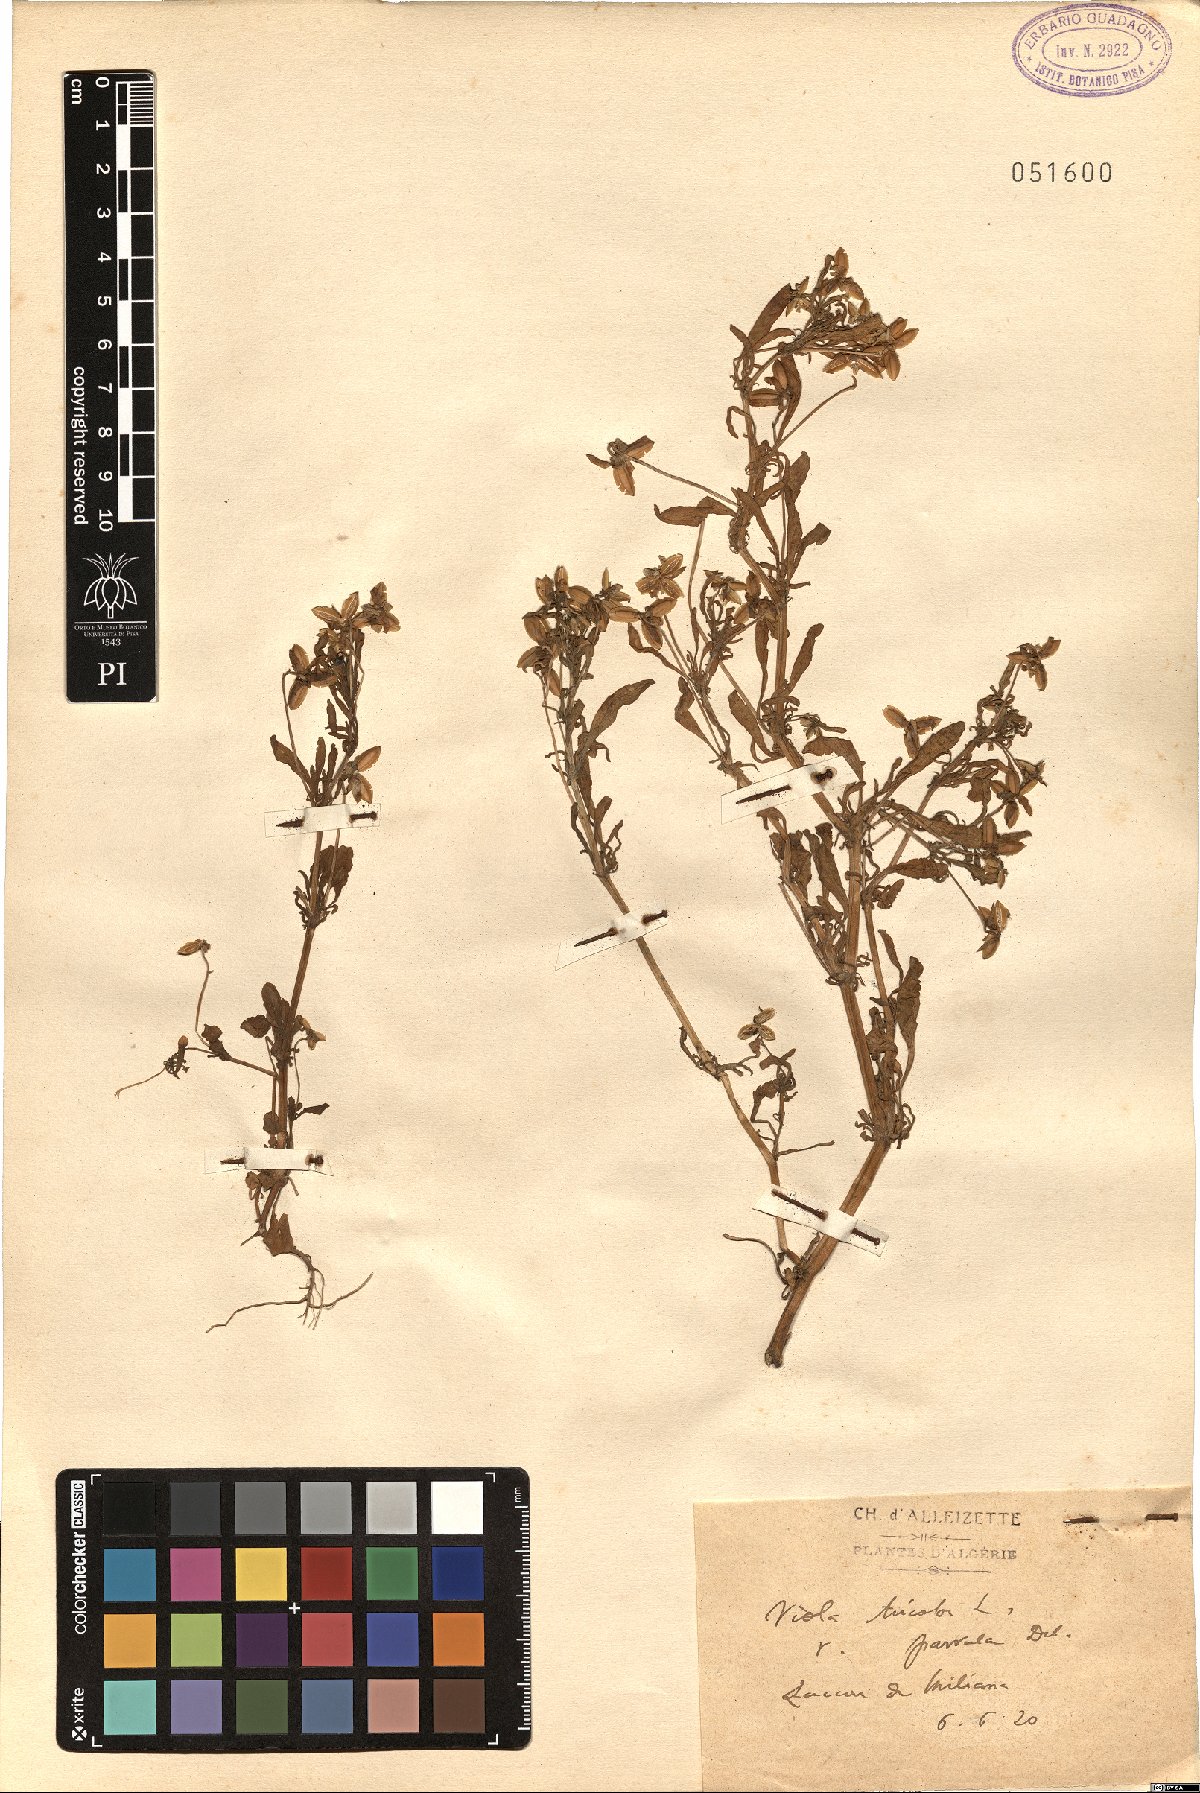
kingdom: Plantae
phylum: Tracheophyta
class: Magnoliopsida
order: Malpighiales
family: Violaceae
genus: Viola
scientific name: Viola tricolor
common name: Pansy
